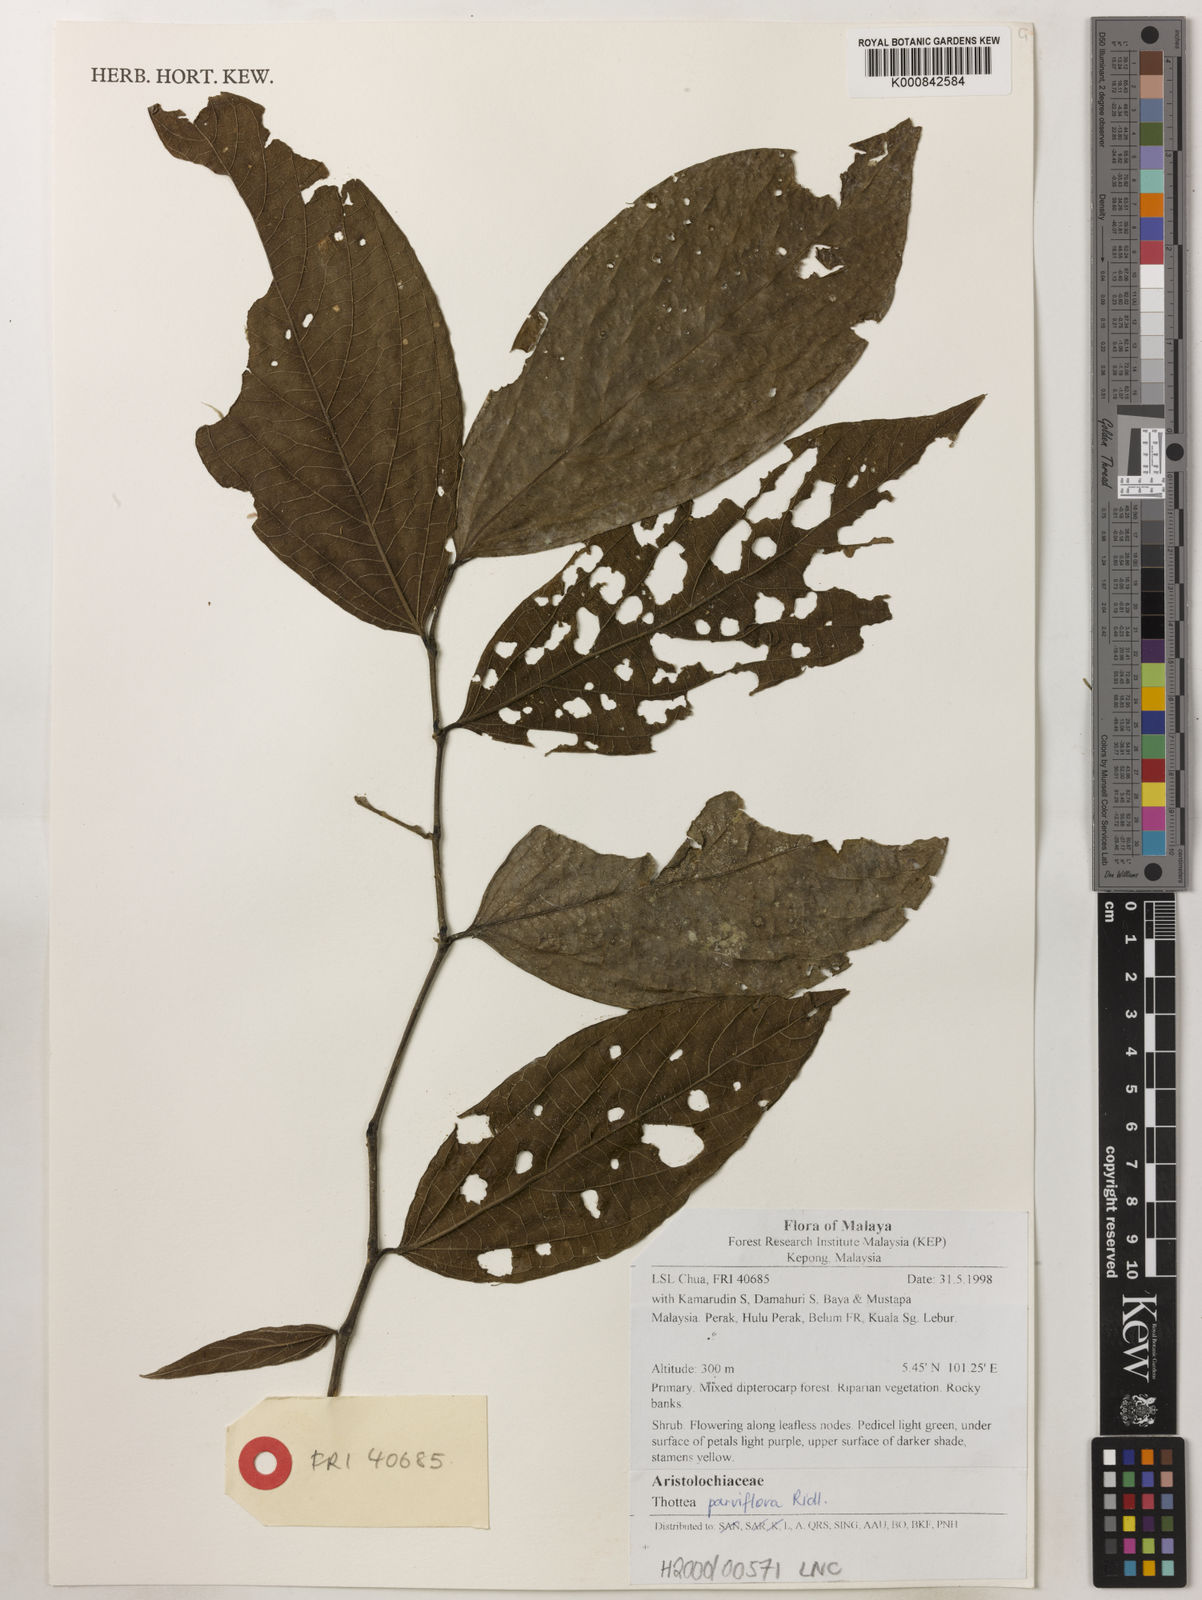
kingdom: Plantae
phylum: Tracheophyta
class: Magnoliopsida
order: Piperales
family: Aristolochiaceae
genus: Thottea
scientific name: Thottea parviflora
